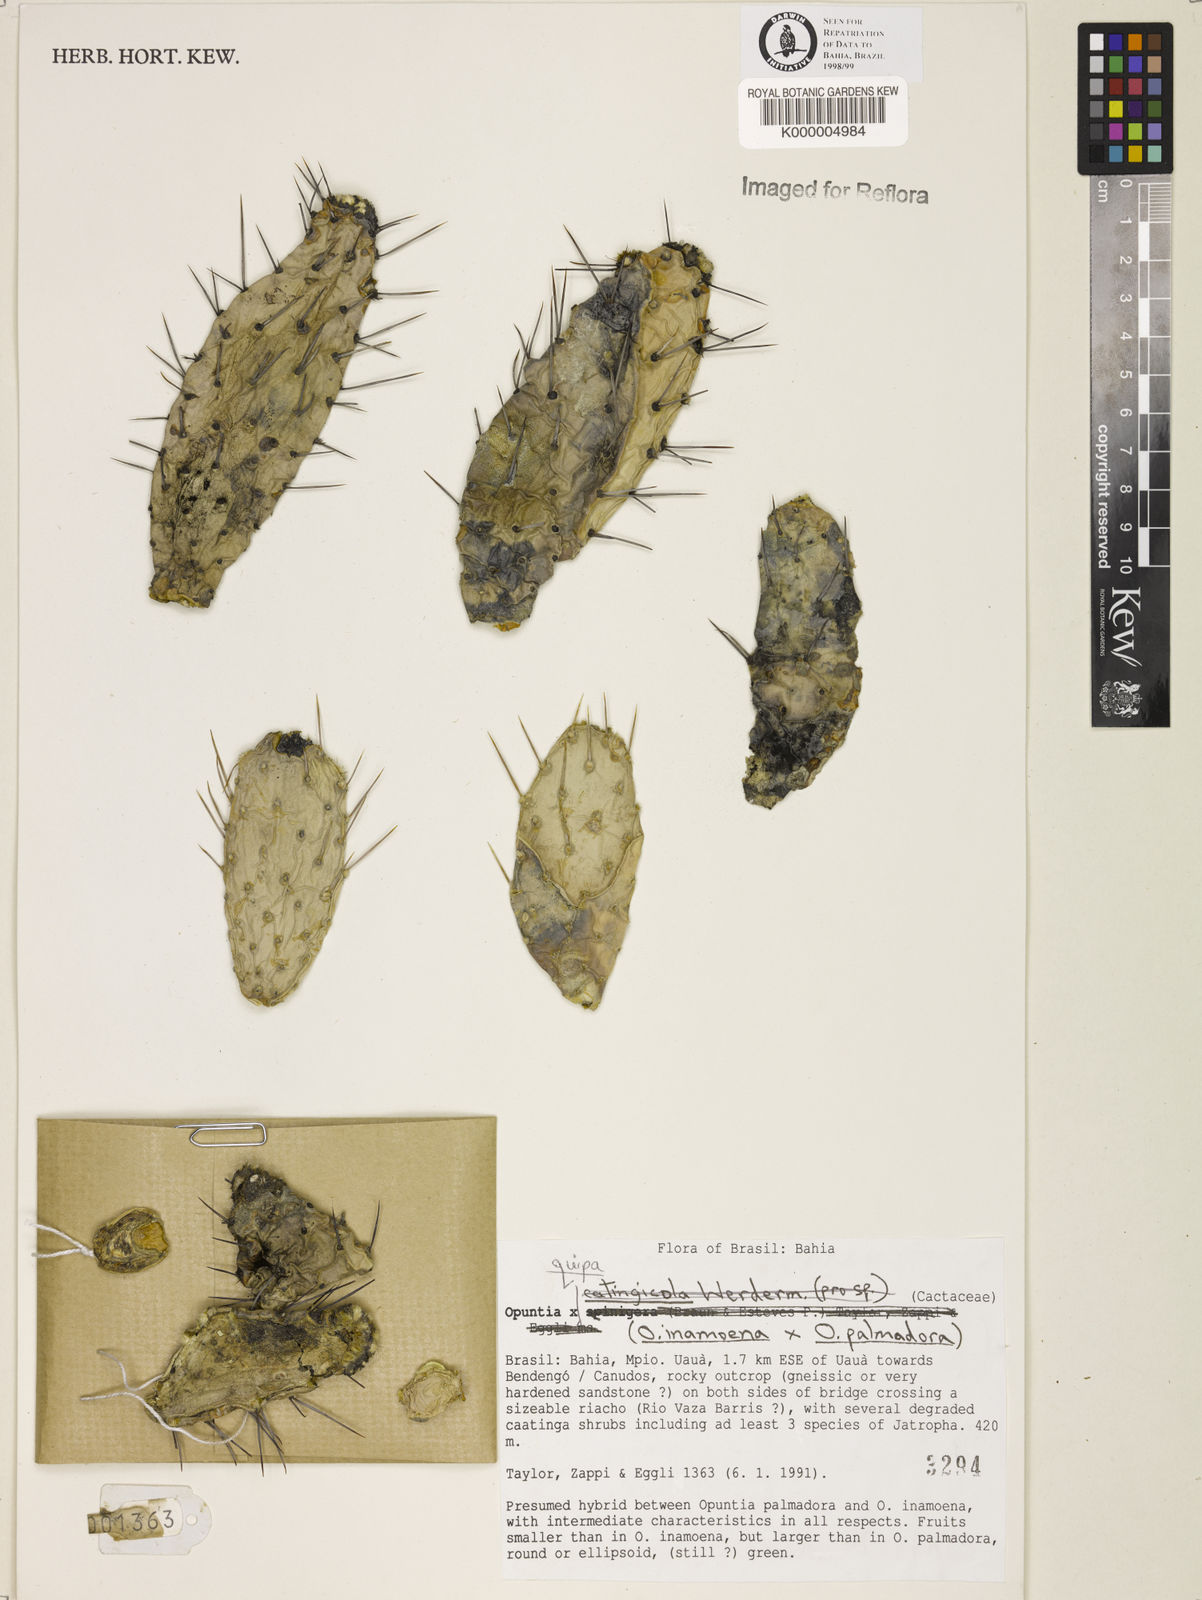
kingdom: Plantae
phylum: Tracheophyta
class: Magnoliopsida
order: Caryophyllales
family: Cactaceae
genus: Opuntia
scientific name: Opuntia
